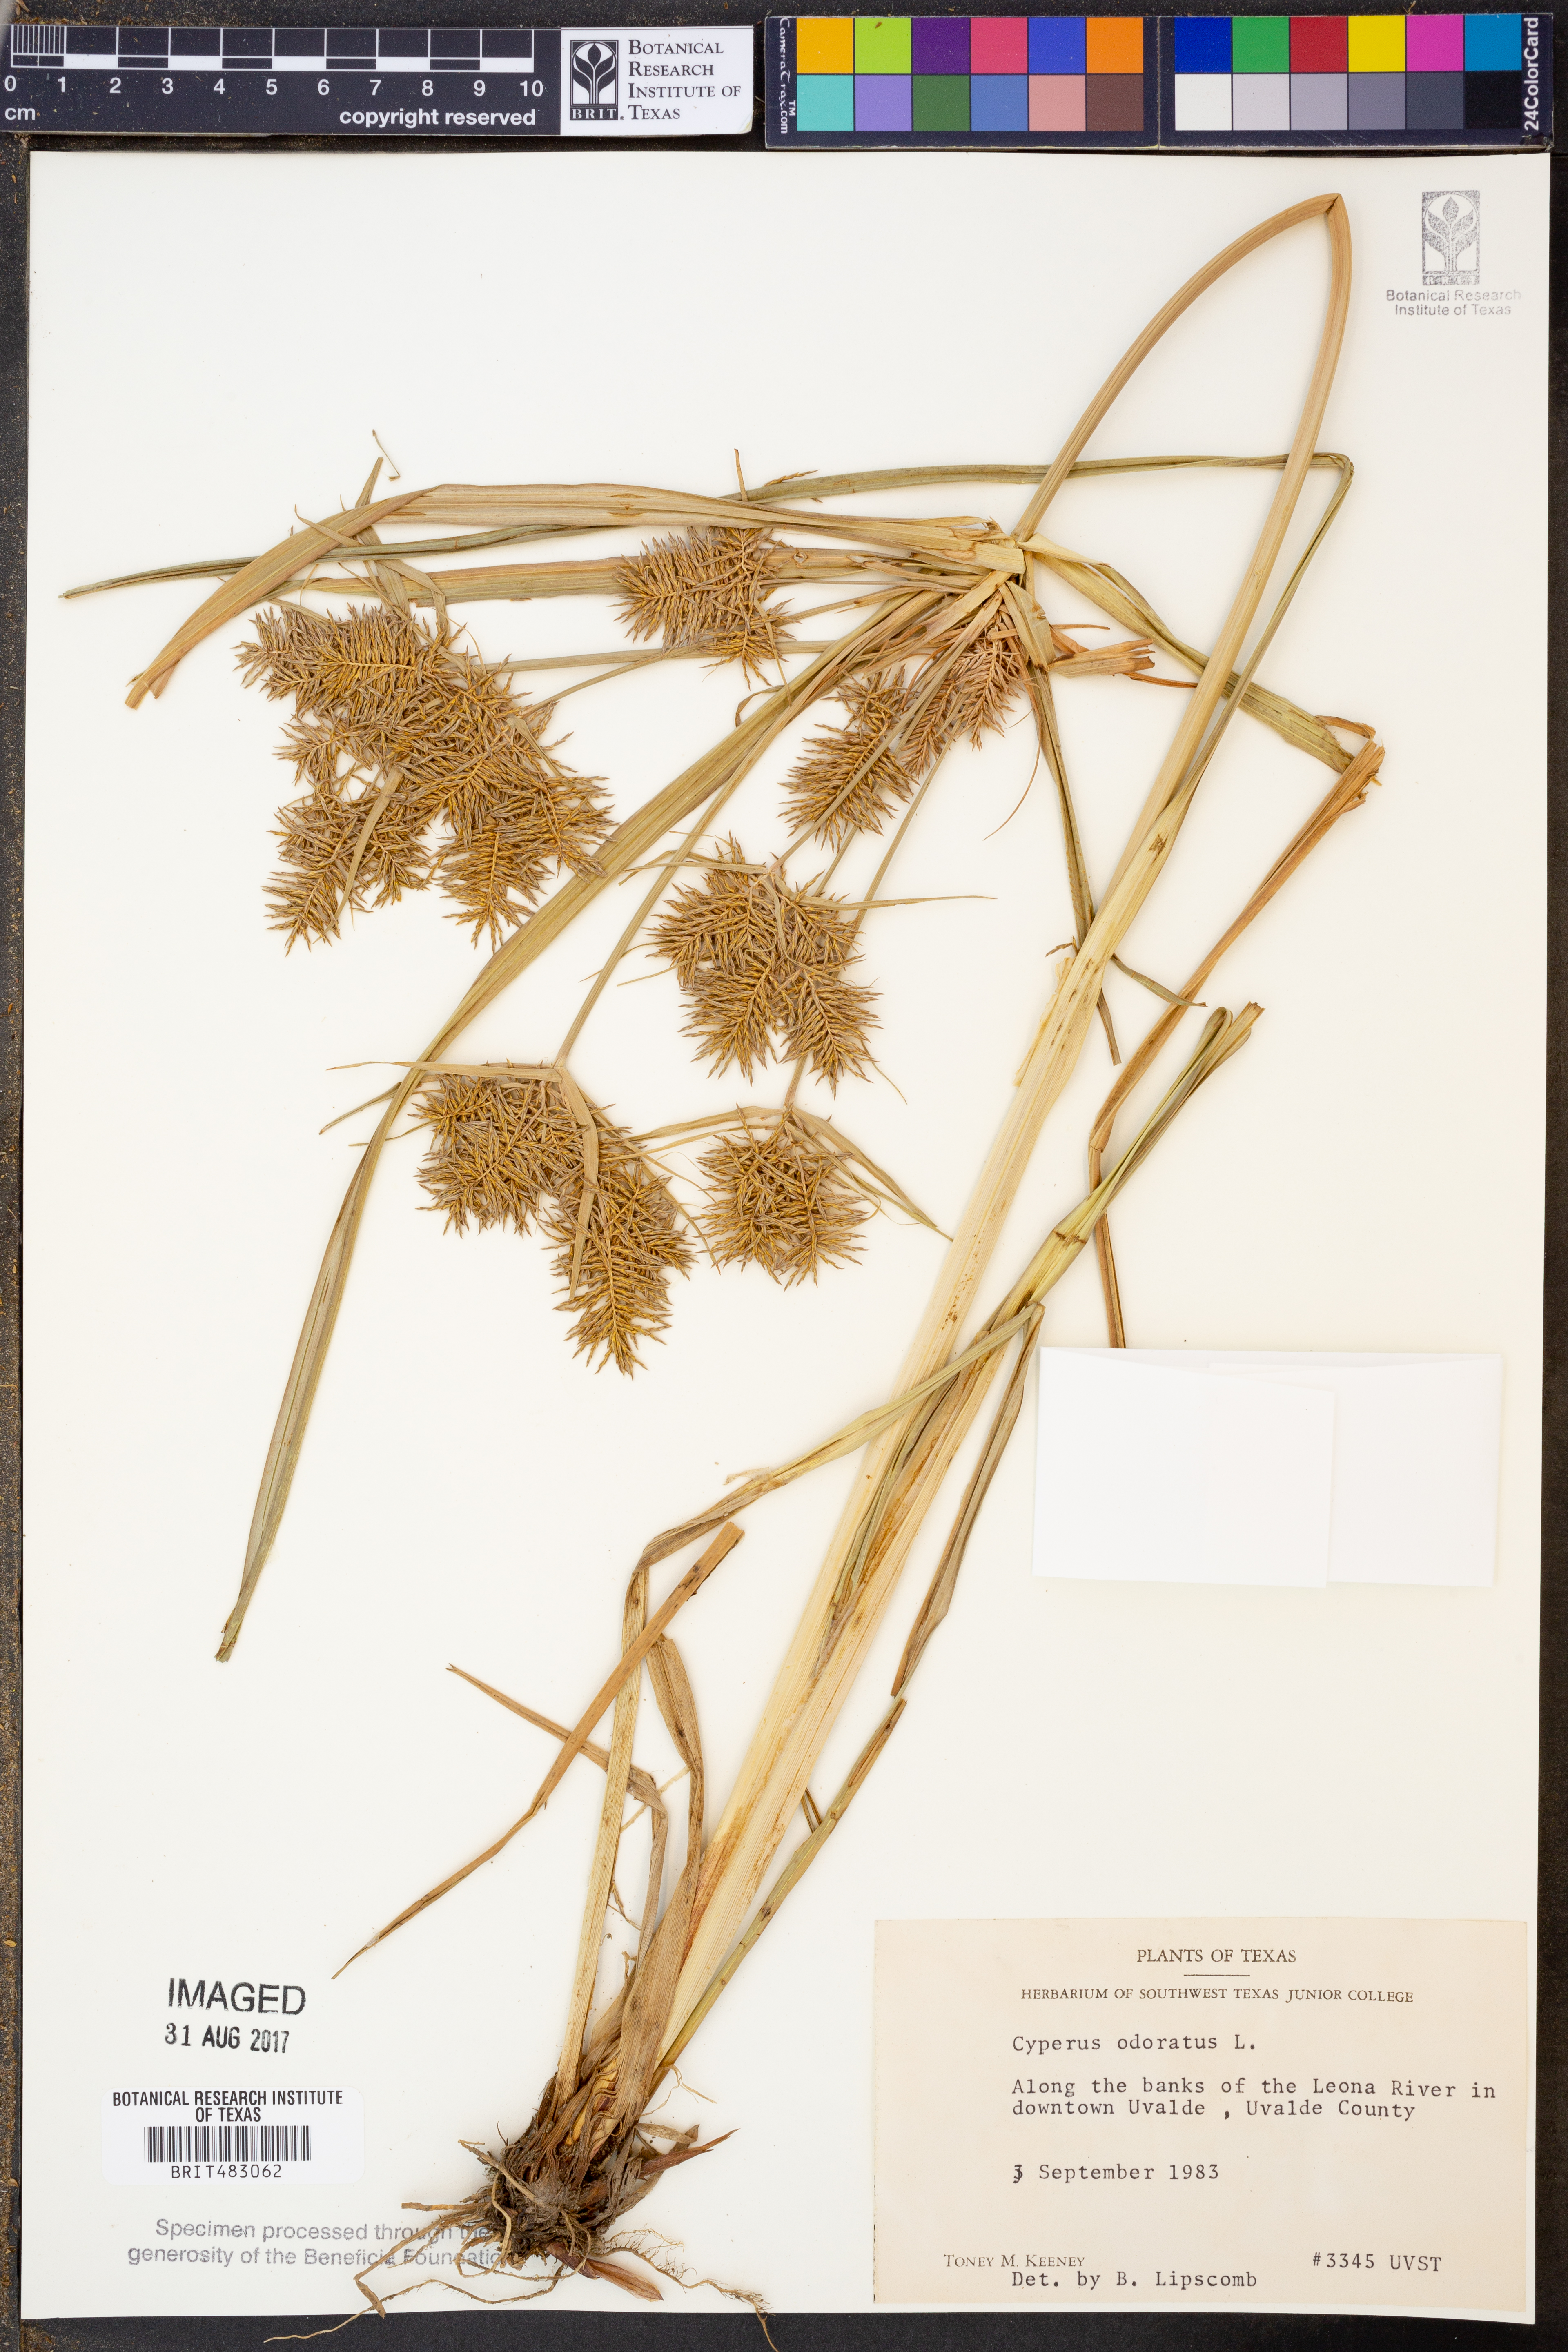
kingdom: Plantae
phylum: Tracheophyta
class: Liliopsida
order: Poales
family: Cyperaceae
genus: Cyperus
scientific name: Cyperus odoratus
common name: Fragrant flatsedge
